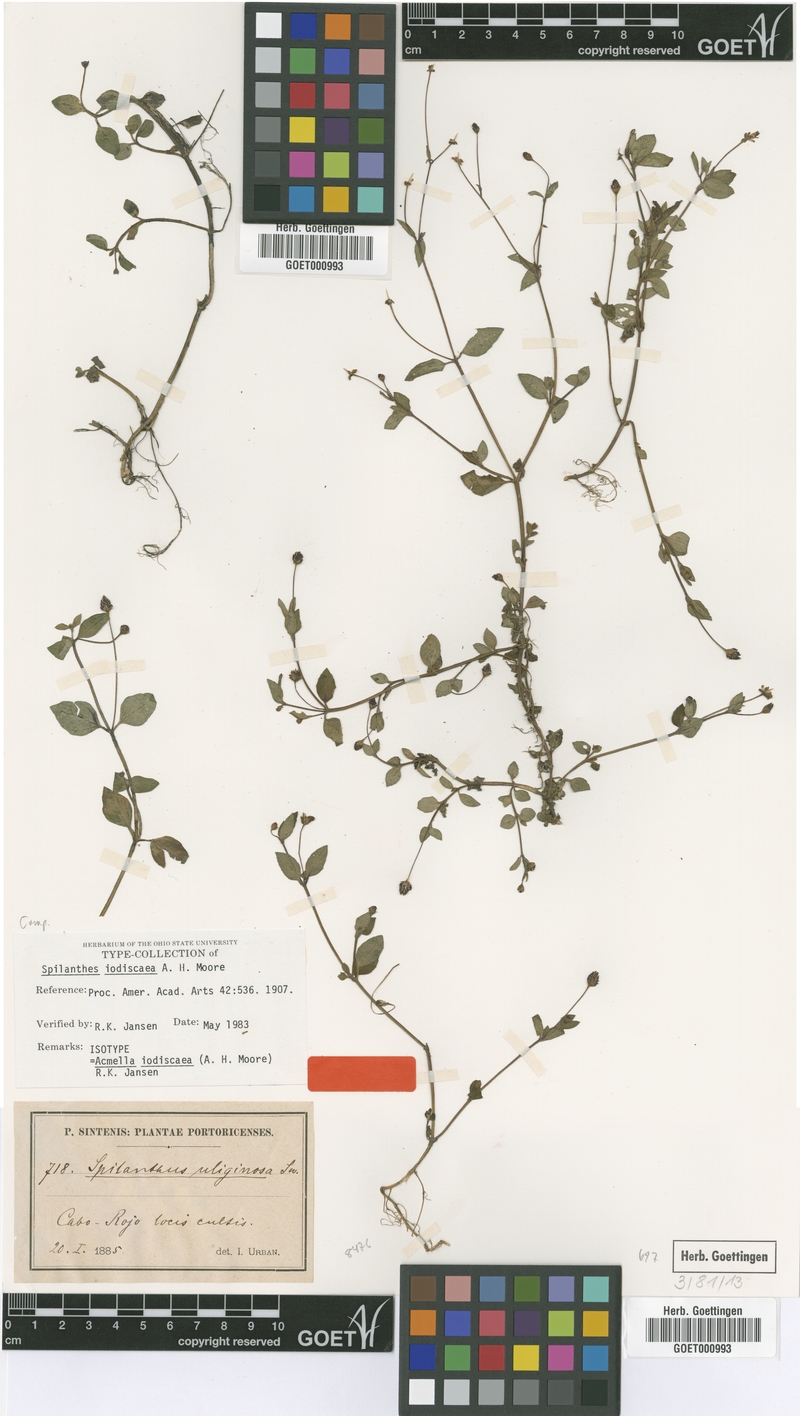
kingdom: Plantae
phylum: Tracheophyta
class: Magnoliopsida
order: Asterales
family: Asteraceae
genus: Acmella
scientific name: Acmella iodiscaea
